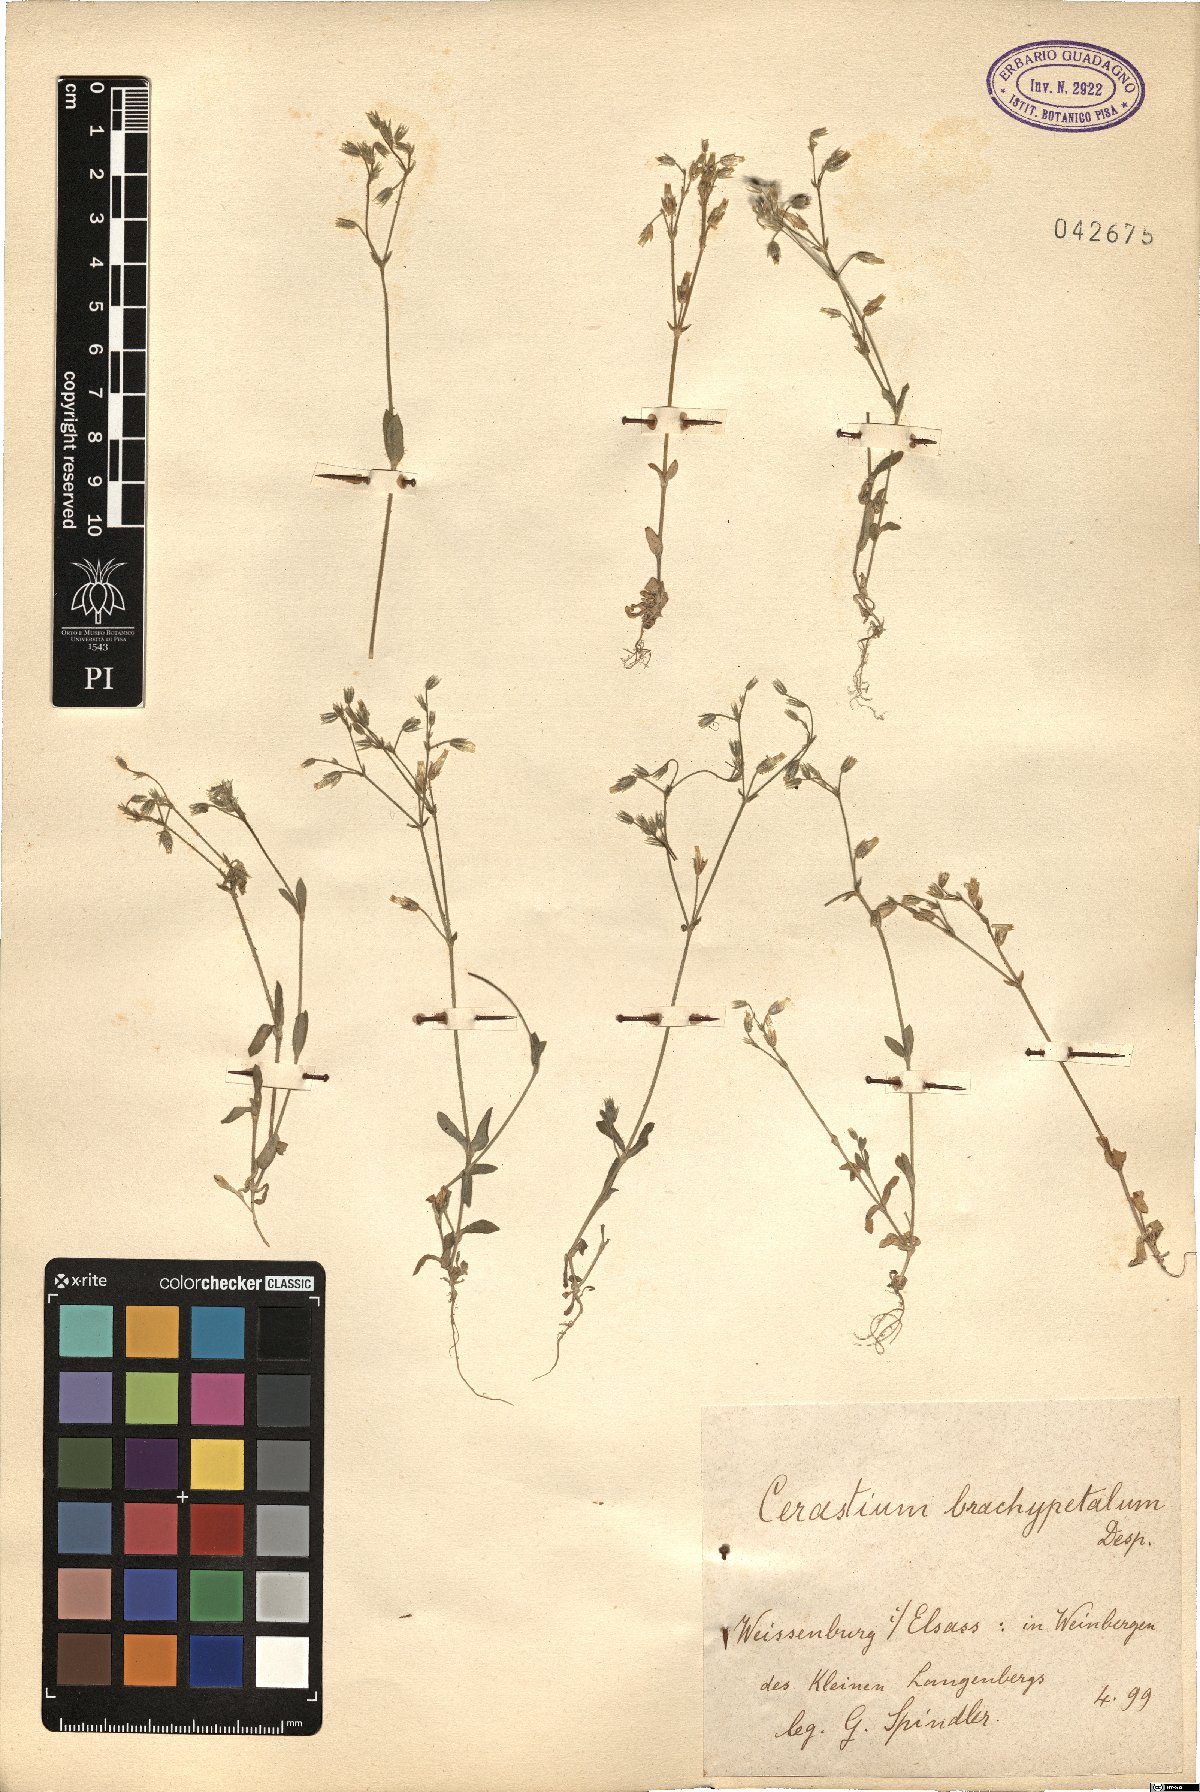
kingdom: Plantae
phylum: Tracheophyta
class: Magnoliopsida
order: Caryophyllales
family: Caryophyllaceae
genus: Cerastium
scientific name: Cerastium brachypetalum
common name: Grey mouse-ear
